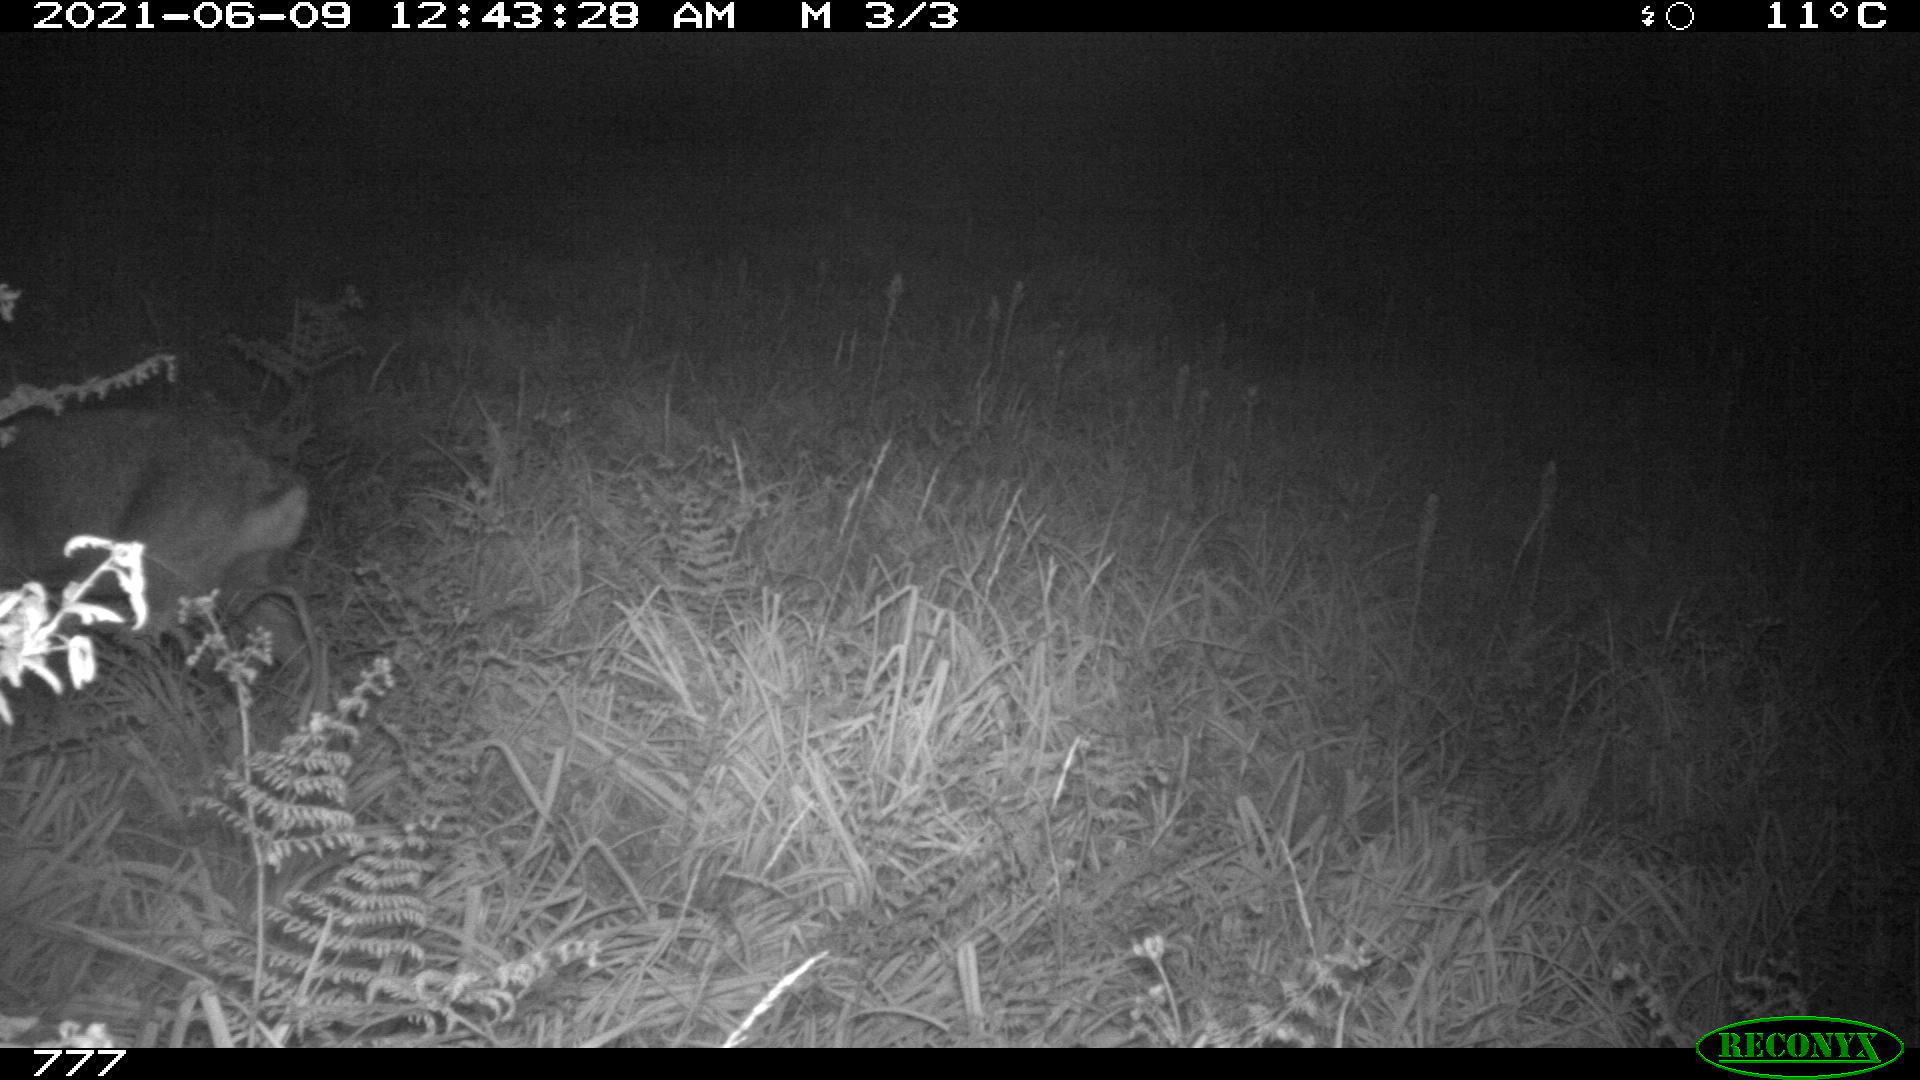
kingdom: Animalia
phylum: Chordata
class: Mammalia
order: Artiodactyla
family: Cervidae
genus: Capreolus
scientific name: Capreolus capreolus
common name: Western roe deer
